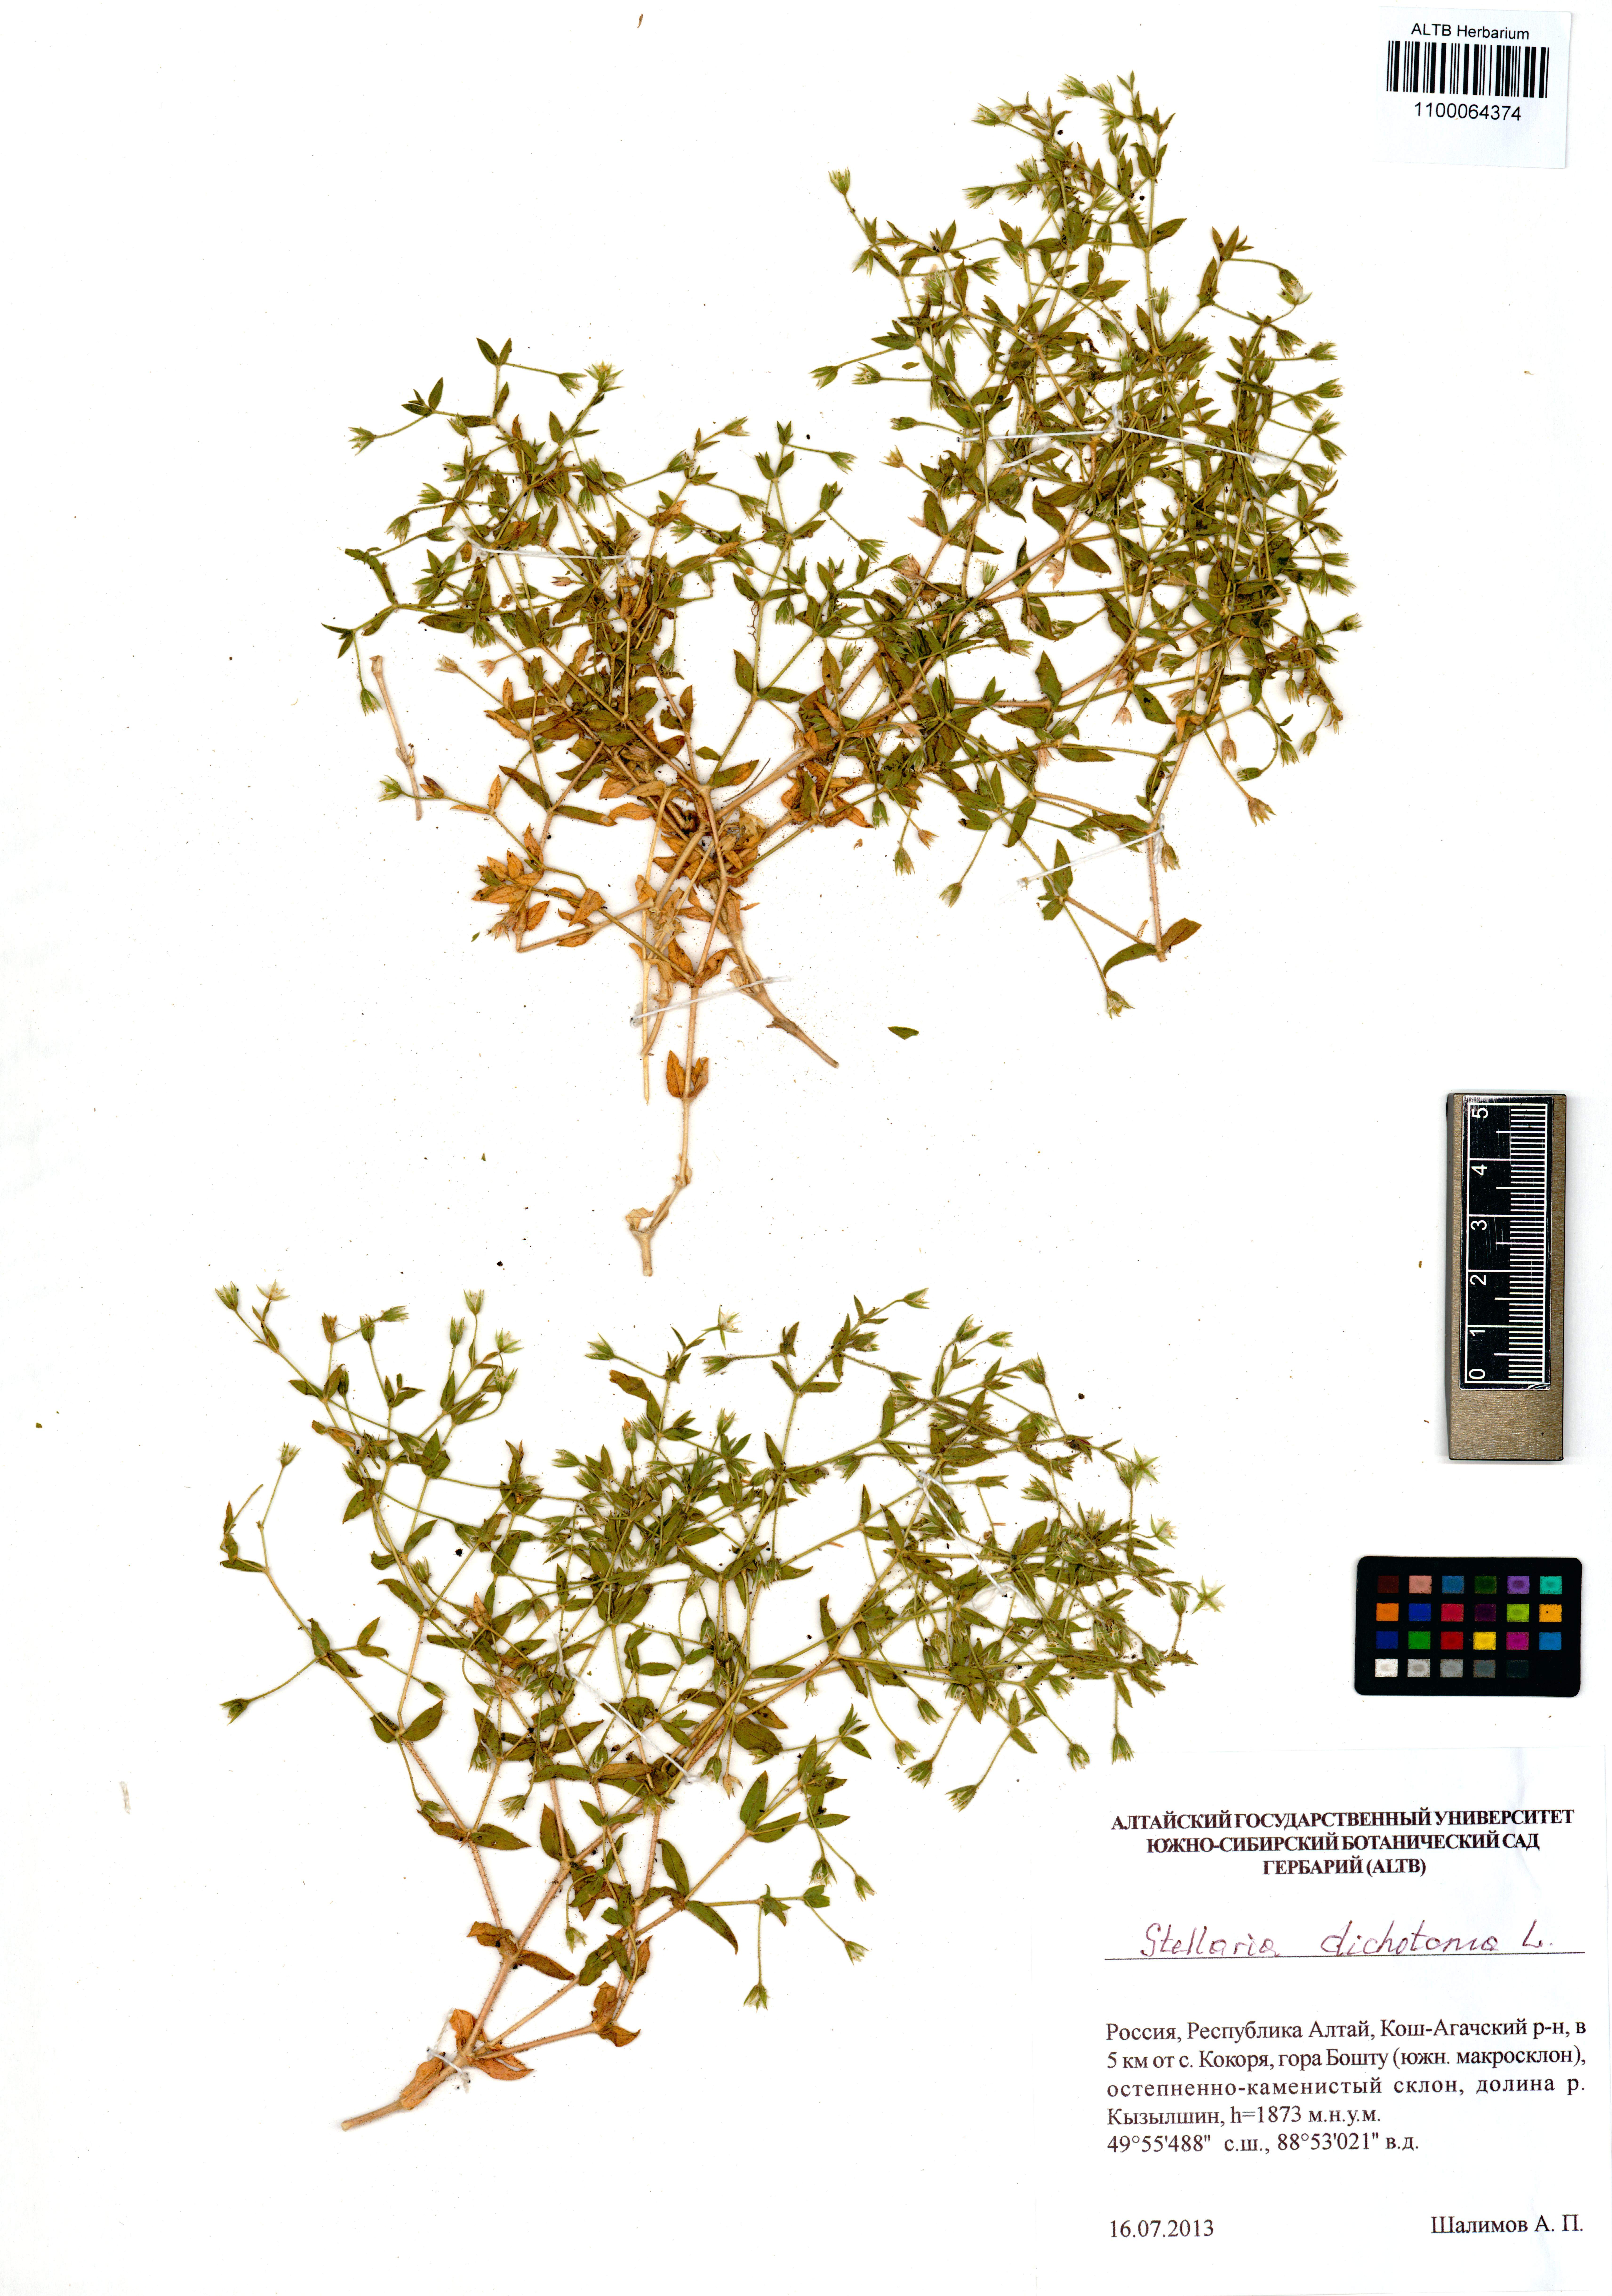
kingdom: Plantae
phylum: Tracheophyta
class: Magnoliopsida
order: Caryophyllales
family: Caryophyllaceae
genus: Mesostemma
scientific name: Mesostemma dichotomum
